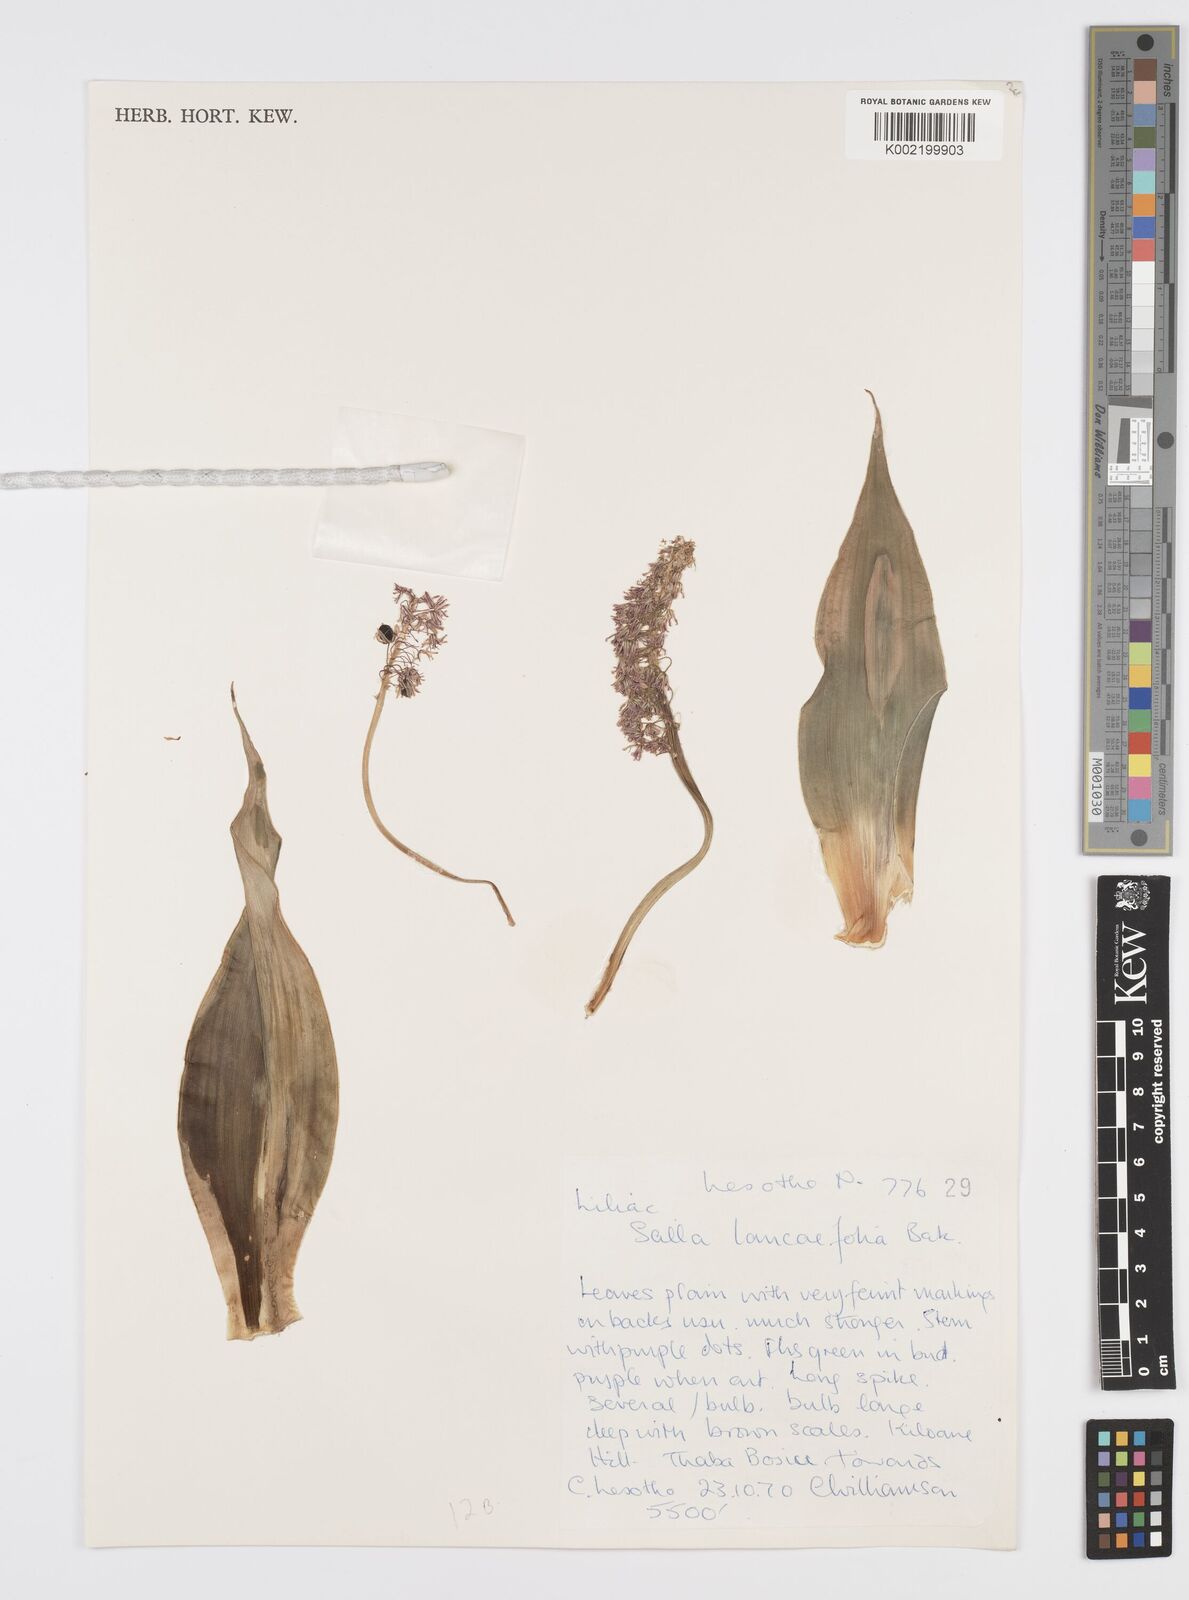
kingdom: Plantae
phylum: Tracheophyta
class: Liliopsida
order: Asparagales
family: Asparagaceae
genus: Ledebouria
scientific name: Ledebouria revoluta
